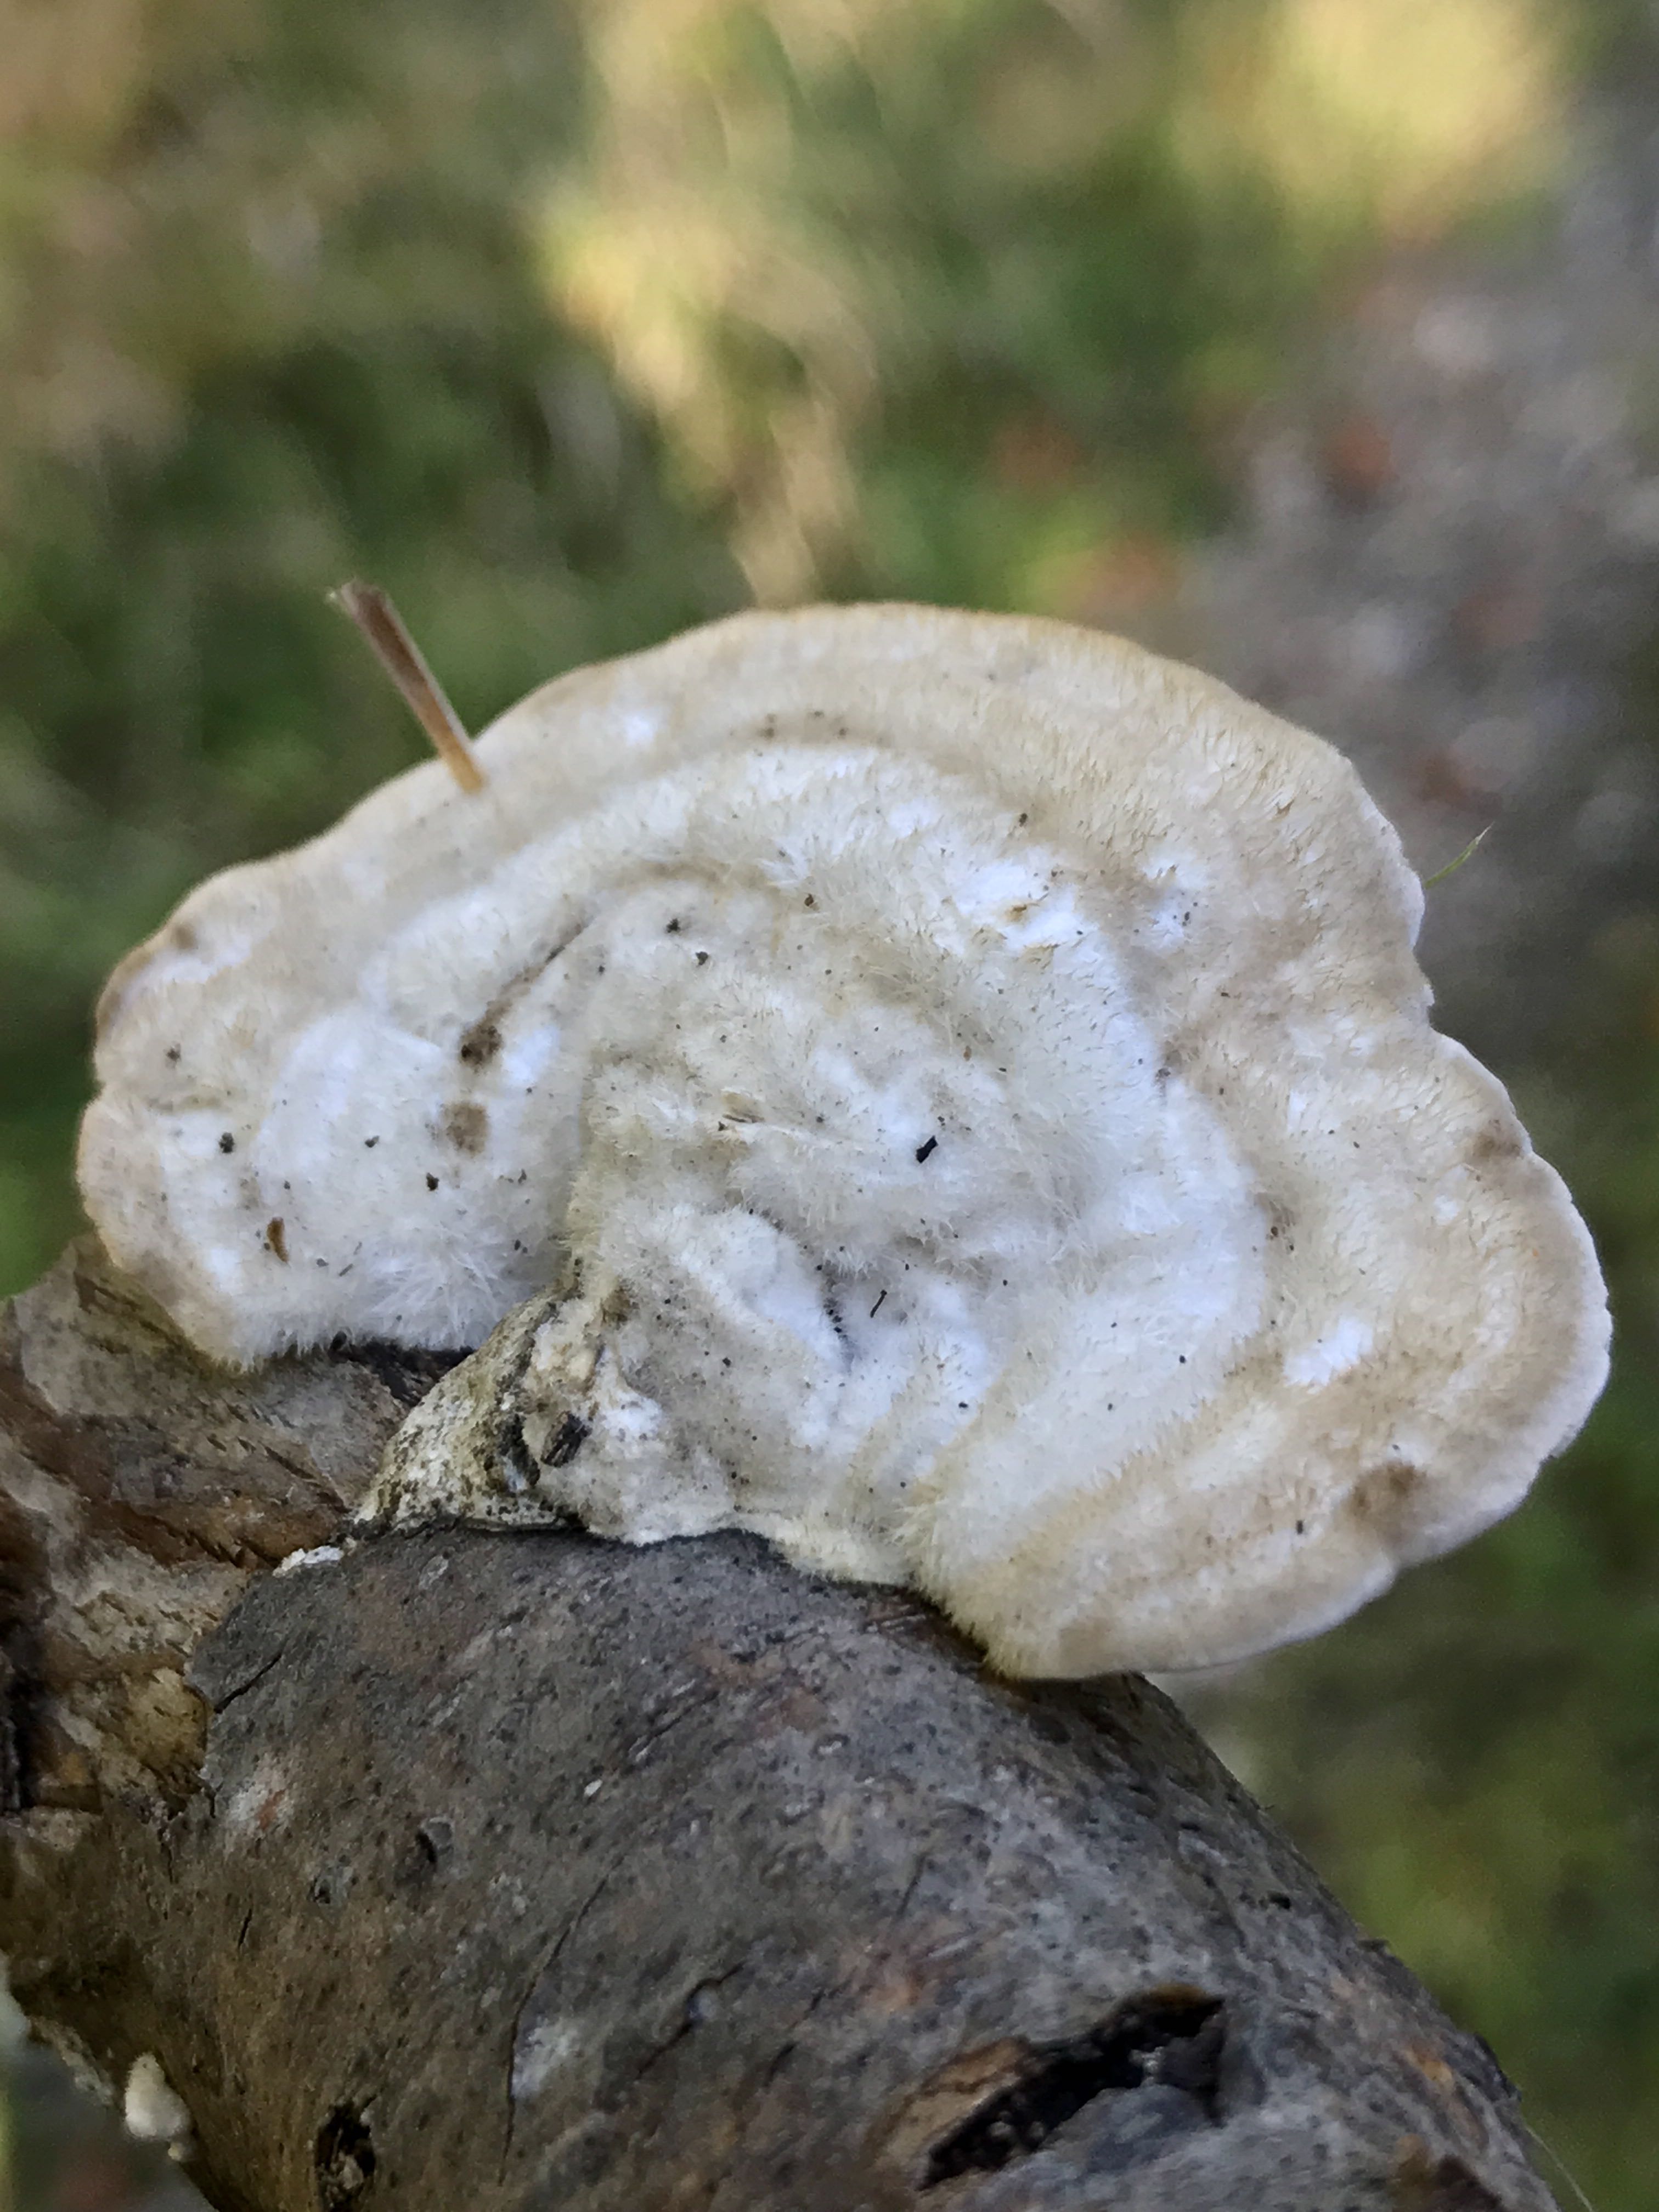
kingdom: Fungi
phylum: Basidiomycota
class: Agaricomycetes
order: Polyporales
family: Polyporaceae
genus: Trametes
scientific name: Trametes hirsuta
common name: håret læderporesvamp
